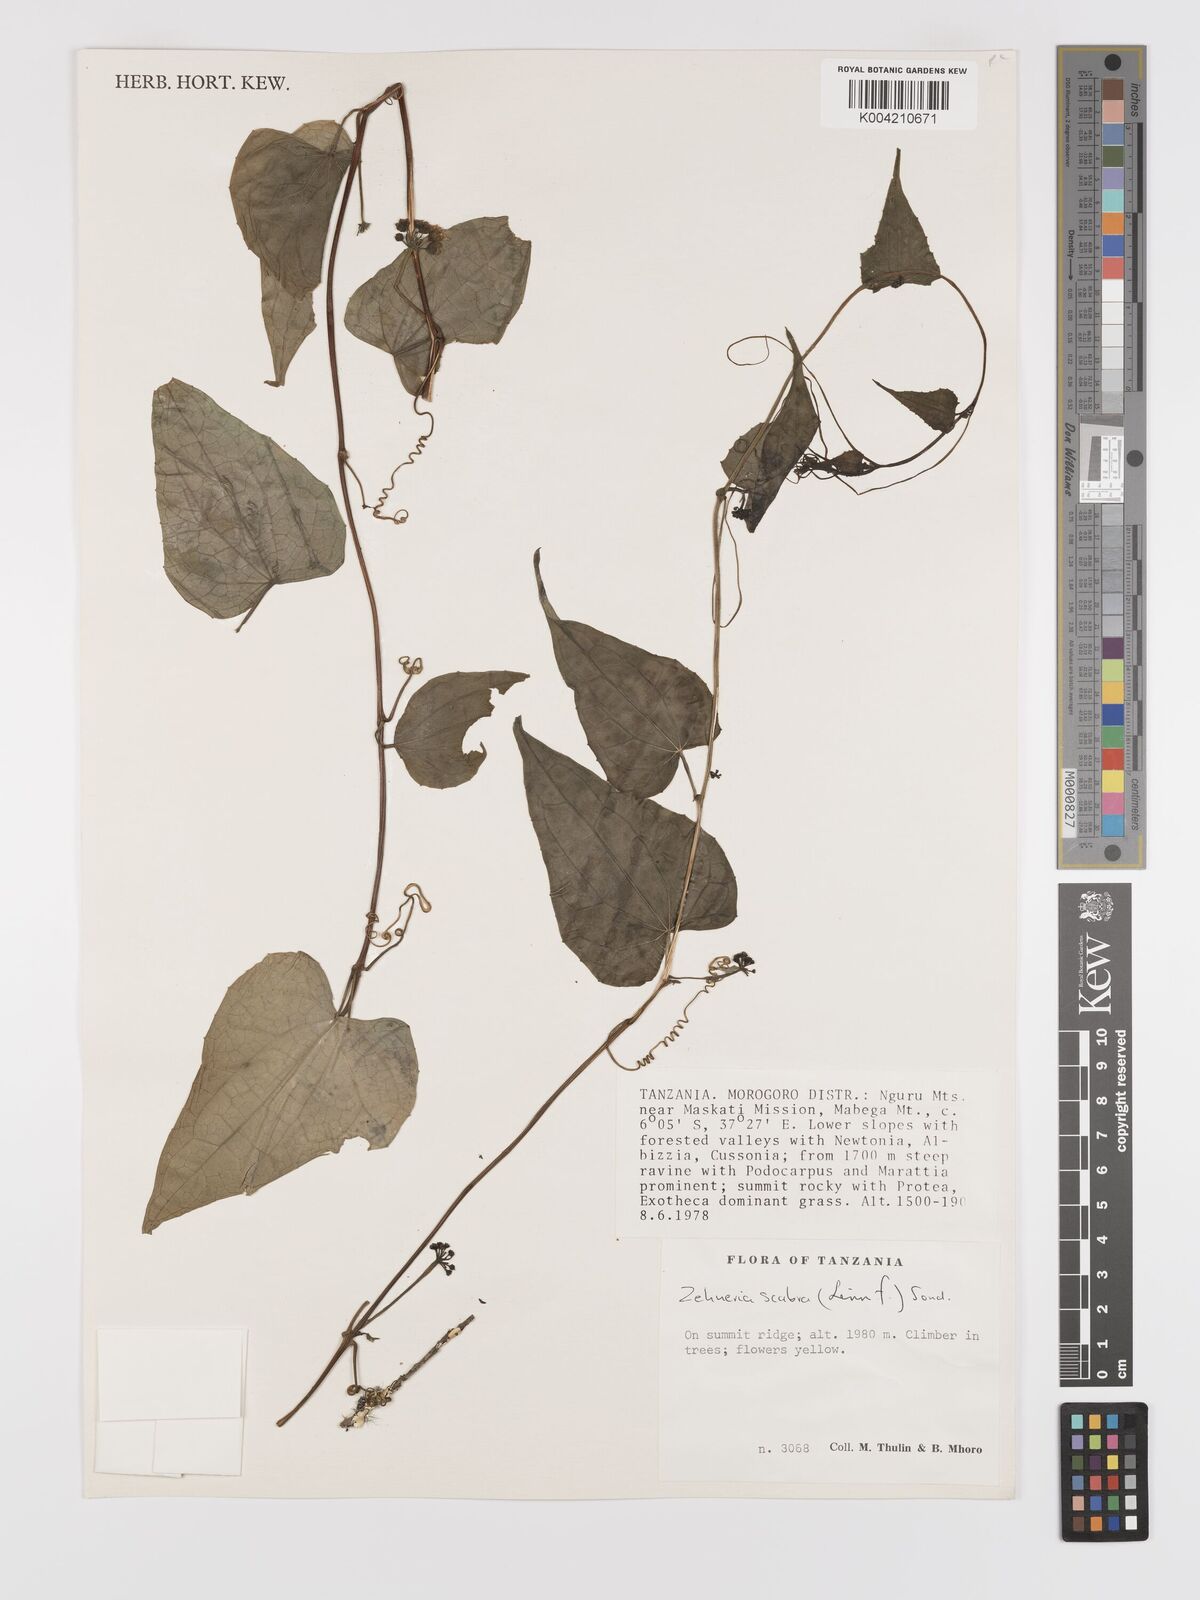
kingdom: Plantae
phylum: Tracheophyta
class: Magnoliopsida
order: Cucurbitales
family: Cucurbitaceae
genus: Zehneria
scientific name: Zehneria scabra
